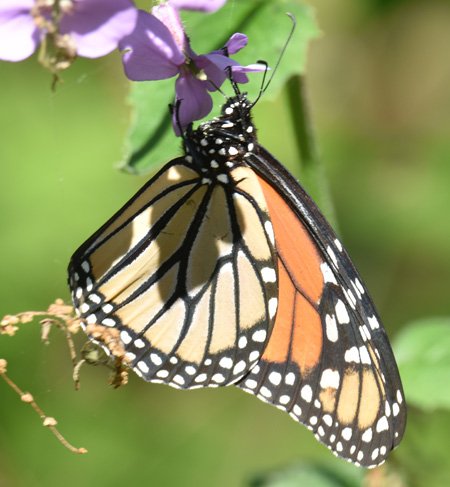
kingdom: Animalia
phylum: Arthropoda
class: Insecta
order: Lepidoptera
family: Nymphalidae
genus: Danaus
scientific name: Danaus plexippus
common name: Monarch
